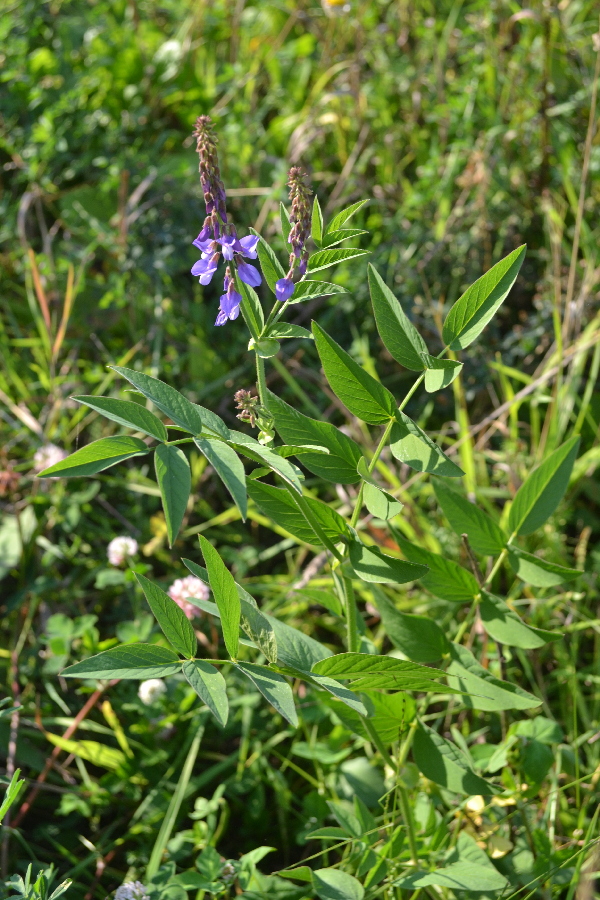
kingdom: Plantae
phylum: Tracheophyta
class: Magnoliopsida
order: Fabales
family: Fabaceae
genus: Galega
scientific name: Galega orientalis
